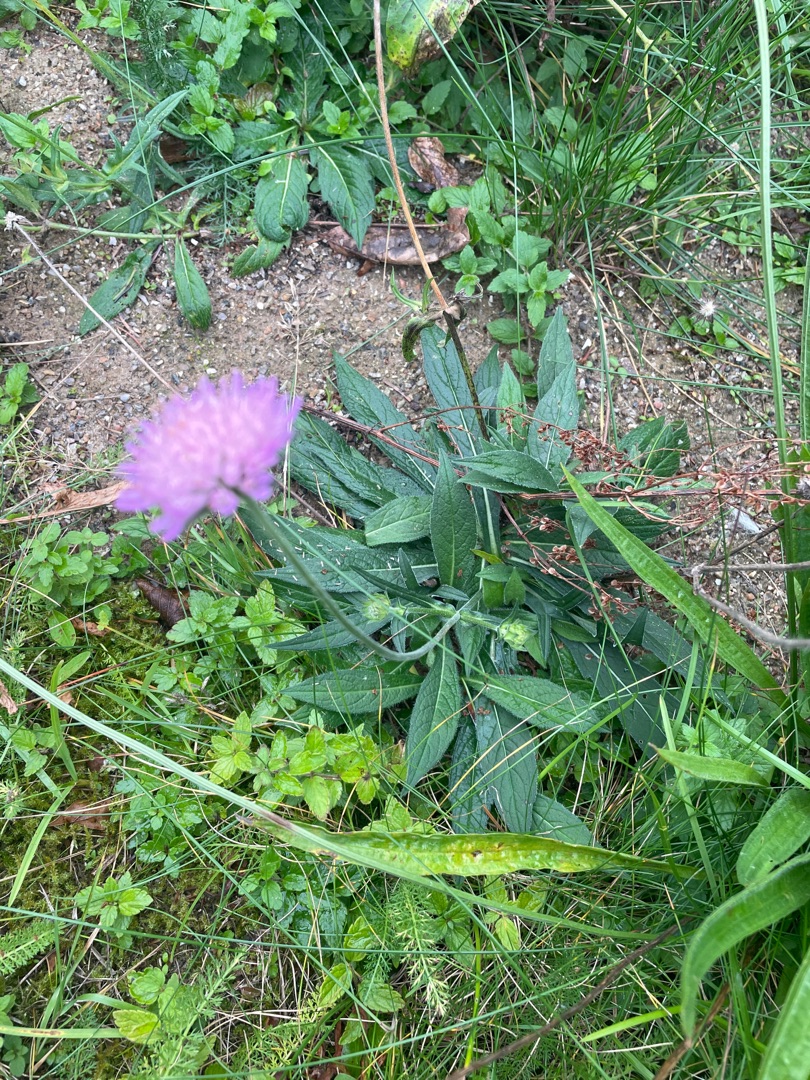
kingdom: Plantae
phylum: Tracheophyta
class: Magnoliopsida
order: Dipsacales
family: Caprifoliaceae
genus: Knautia
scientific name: Knautia arvensis
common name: Blåhat
